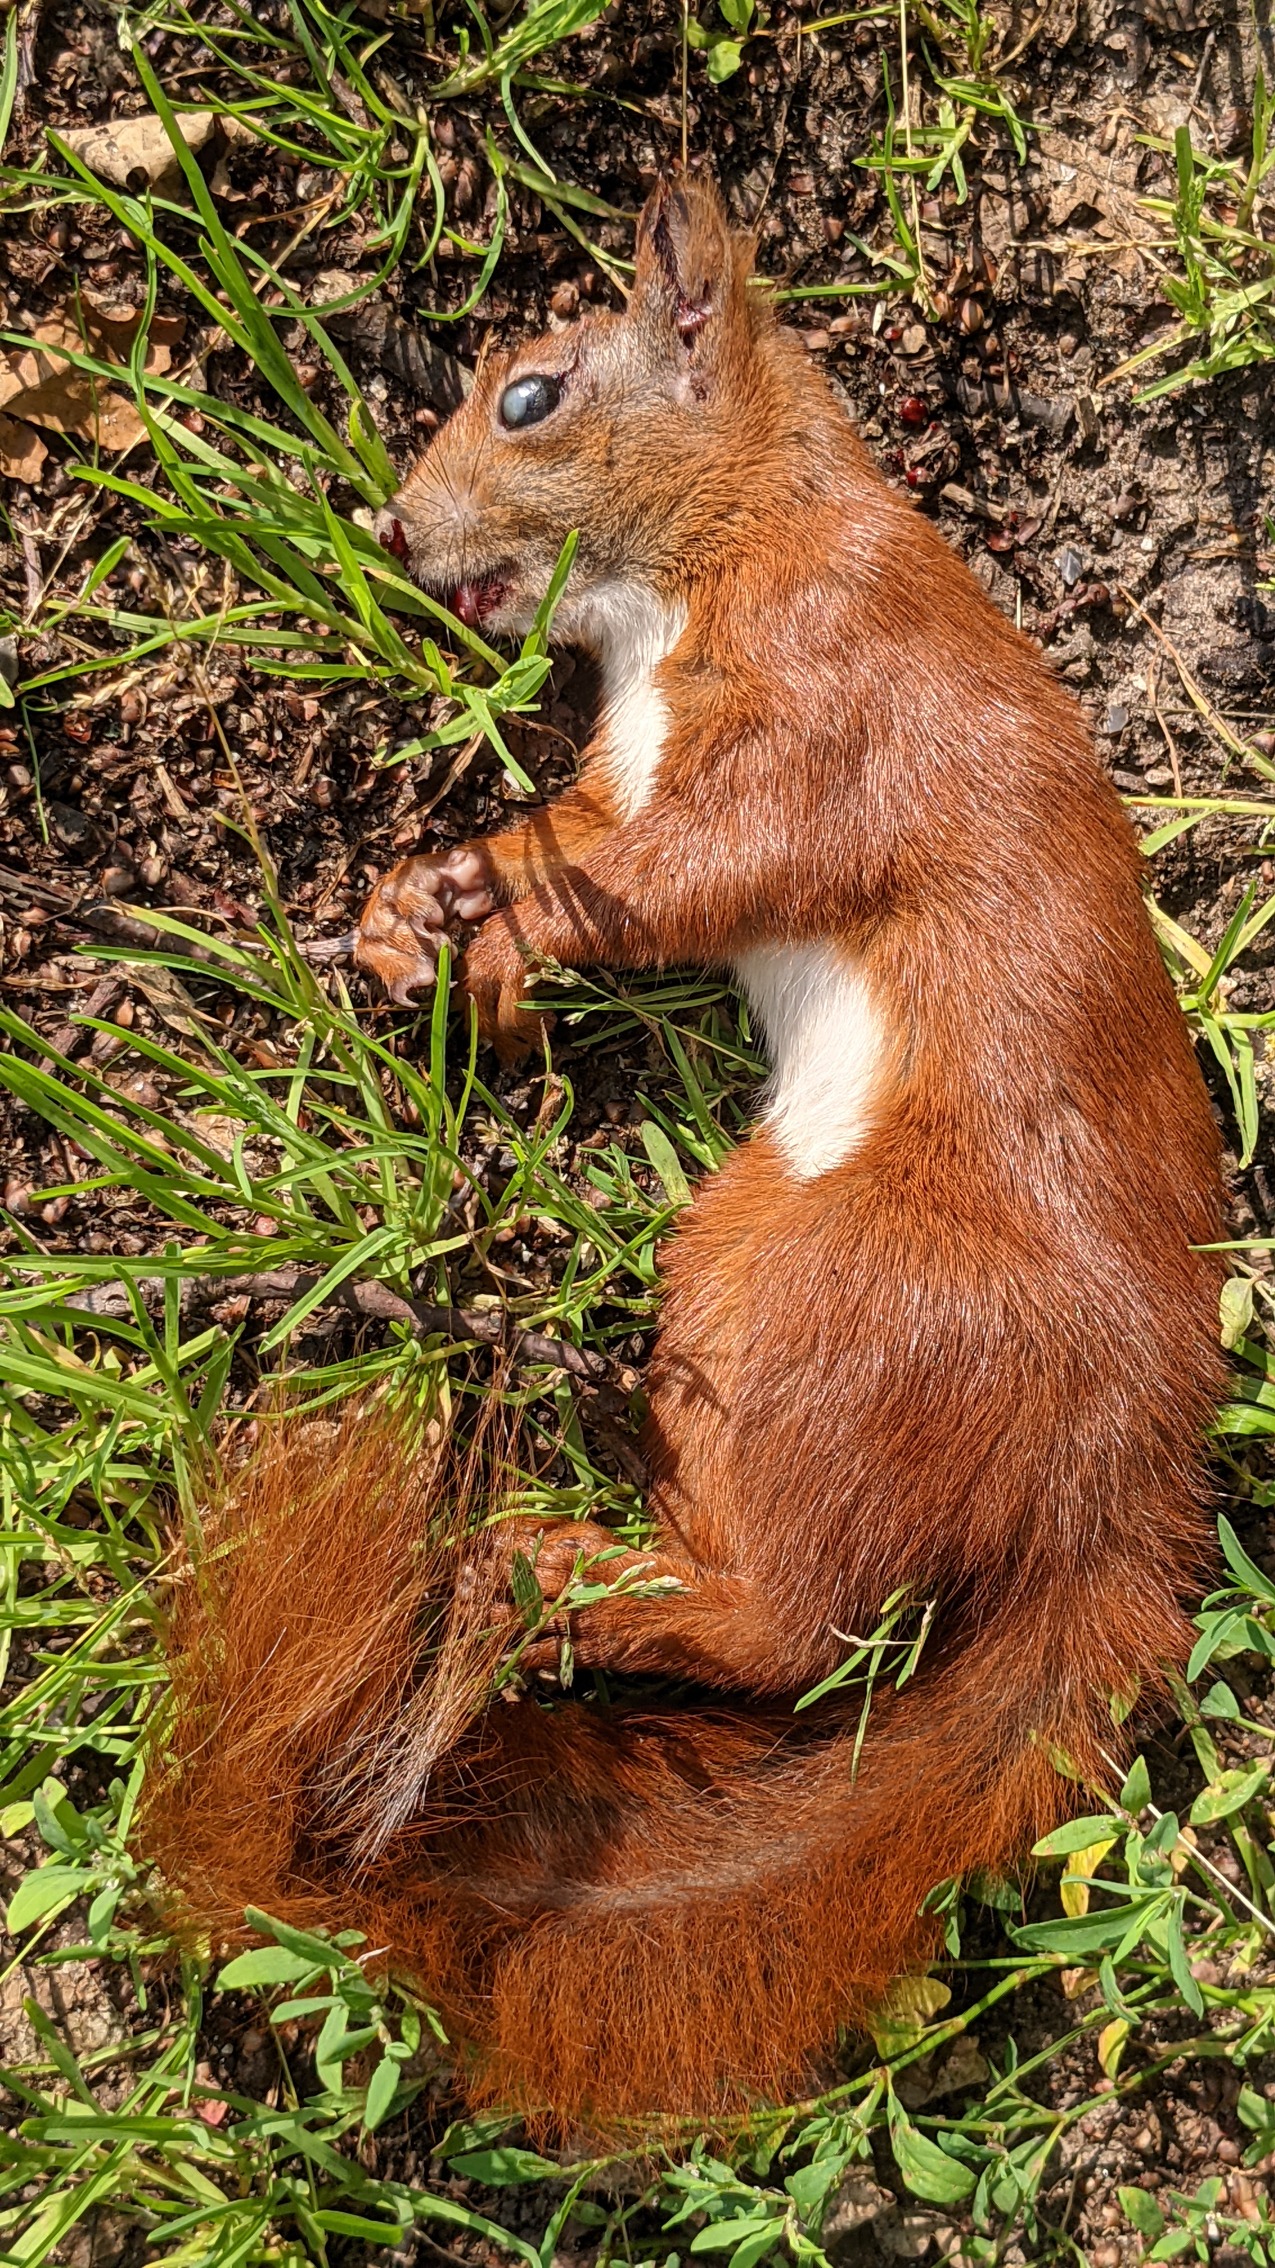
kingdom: Animalia
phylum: Chordata
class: Mammalia
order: Rodentia
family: Sciuridae
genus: Sciurus
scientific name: Sciurus vulgaris
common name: Egern
